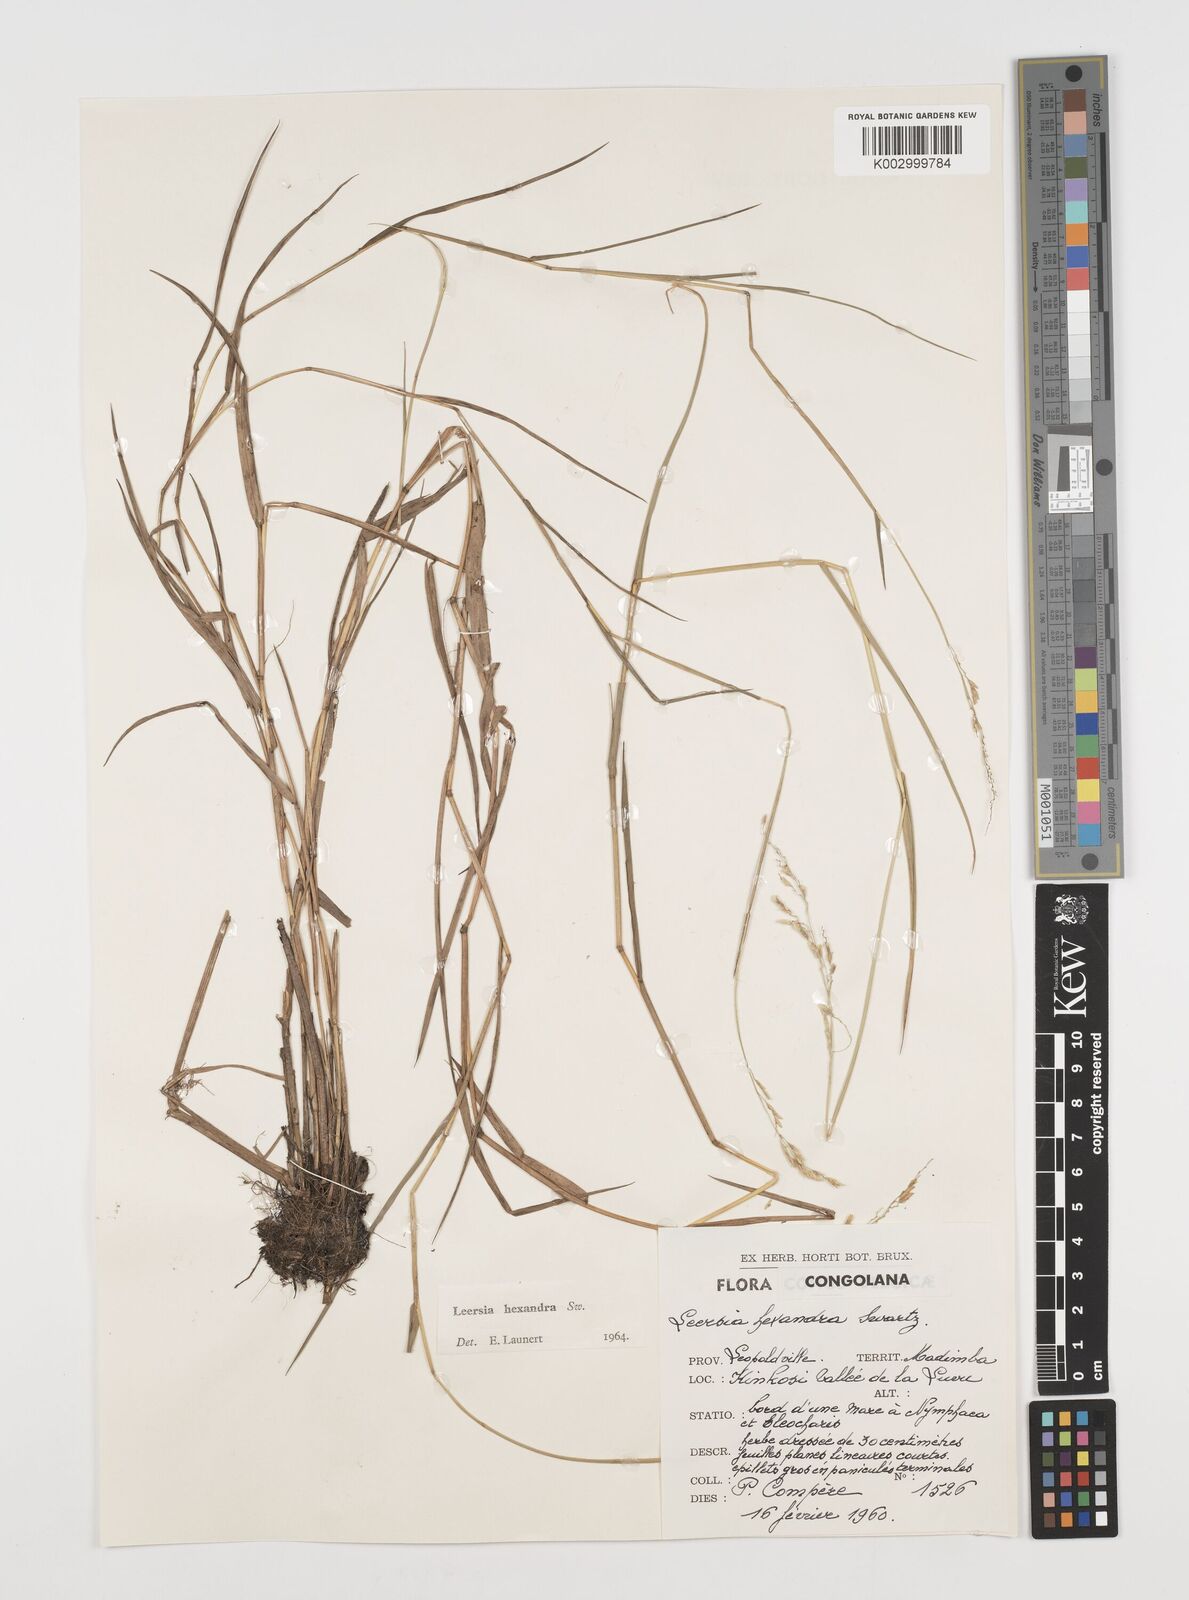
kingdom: Plantae
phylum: Tracheophyta
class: Liliopsida
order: Poales
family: Poaceae
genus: Leersia
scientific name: Leersia hexandra
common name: Southern cut grass
